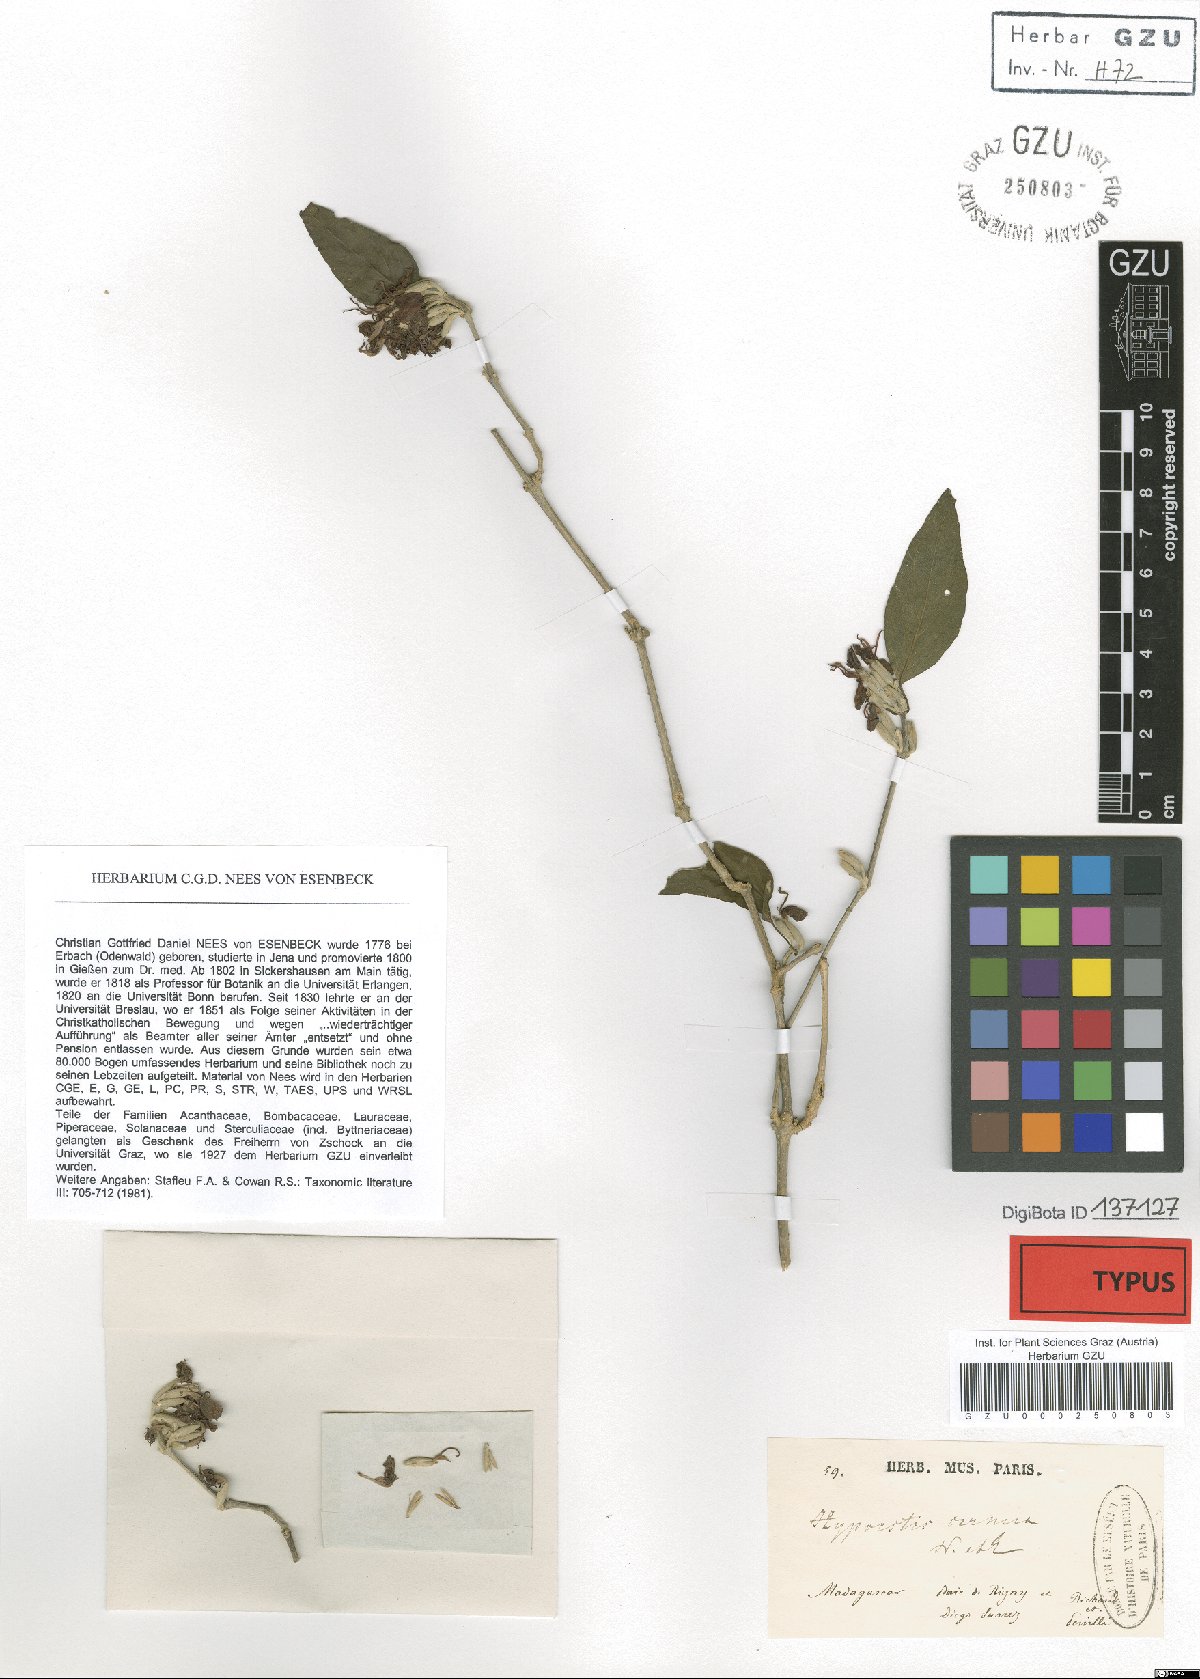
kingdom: Plantae
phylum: Tracheophyta
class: Magnoliopsida
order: Lamiales
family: Acanthaceae
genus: Hypoestes
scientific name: Hypoestes cernua
